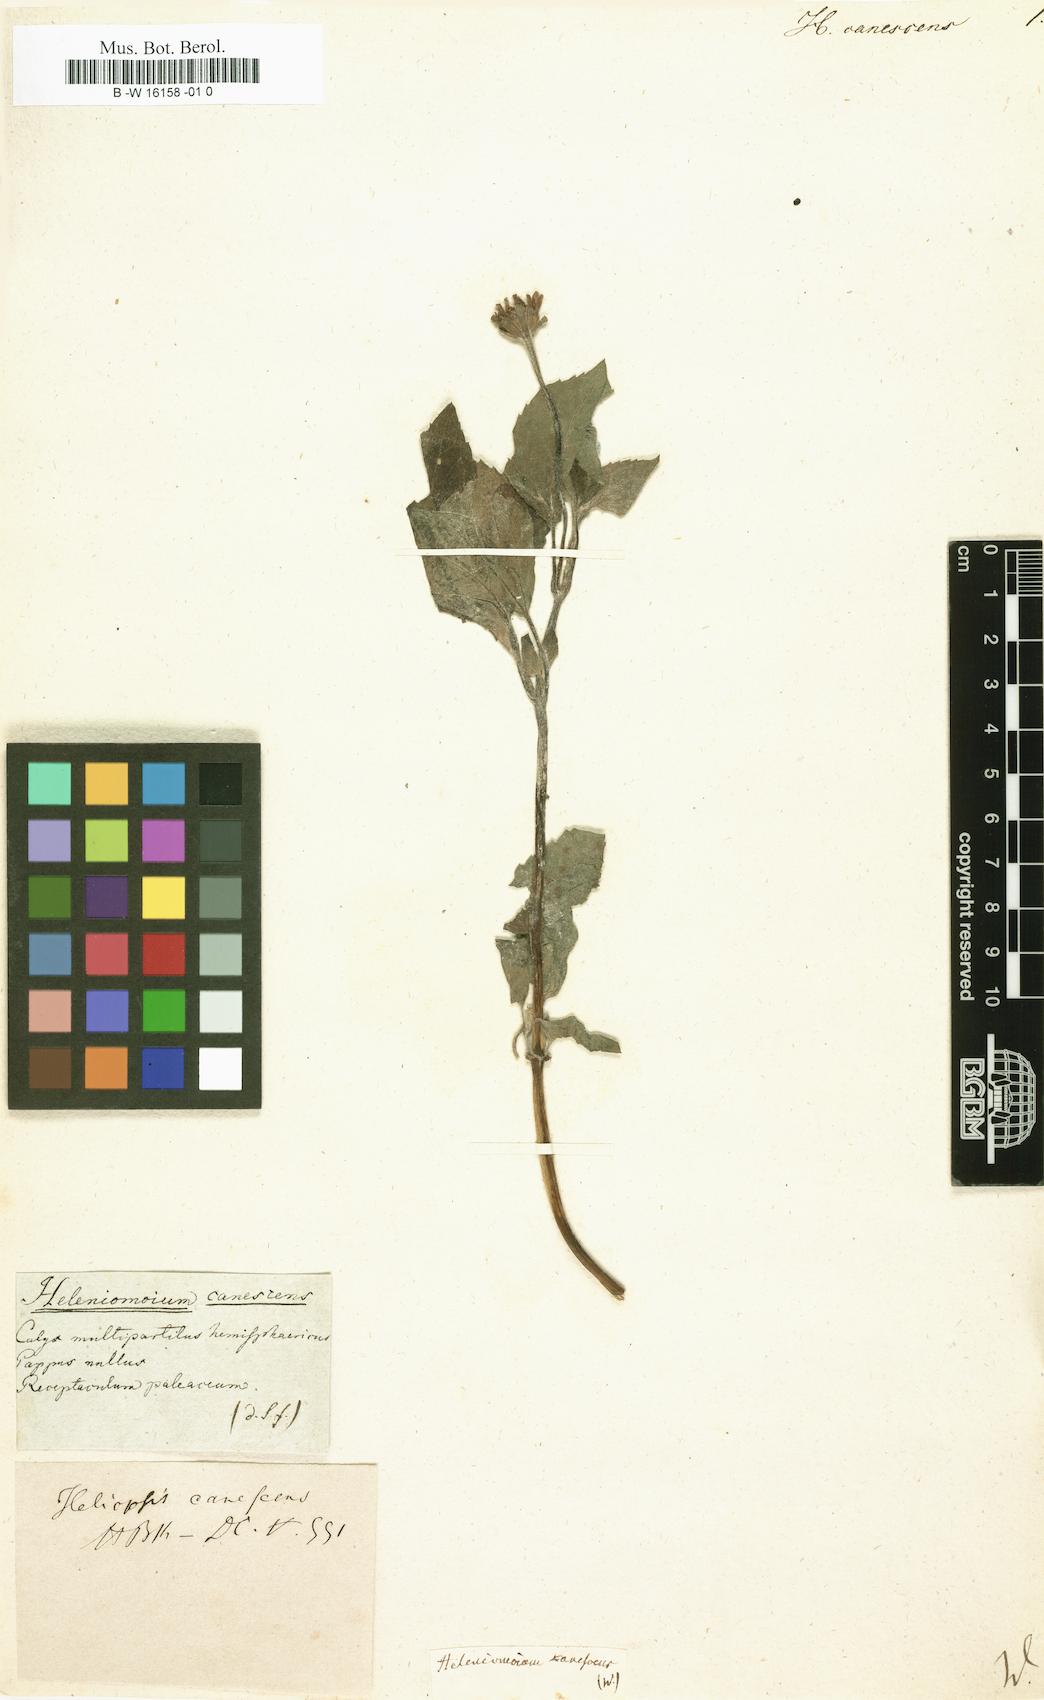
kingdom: Plantae
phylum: Tracheophyta
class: Magnoliopsida
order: Asterales
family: Asteraceae
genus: Heliopsis
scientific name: Heliopsis buphthalmoides
